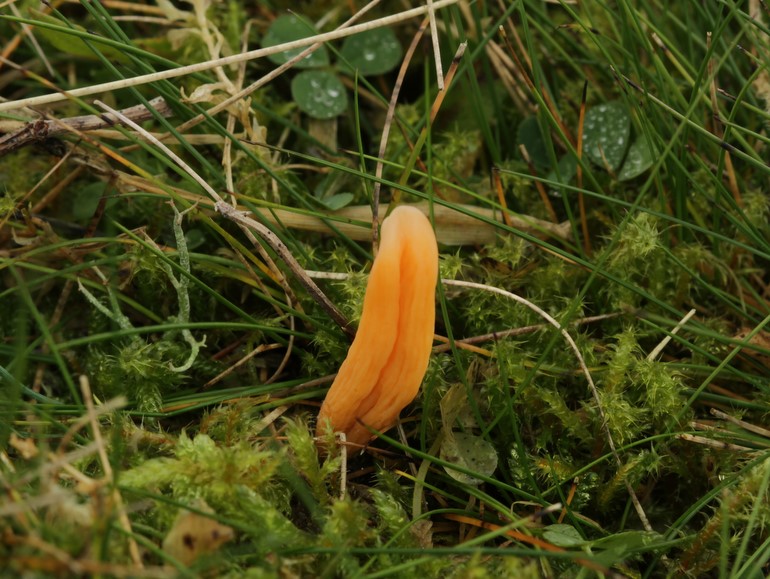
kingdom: Fungi
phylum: Basidiomycota
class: Agaricomycetes
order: Agaricales
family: Clavariaceae
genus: Clavulinopsis
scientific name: Clavulinopsis luteoalba
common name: abrikos-køllesvamp
